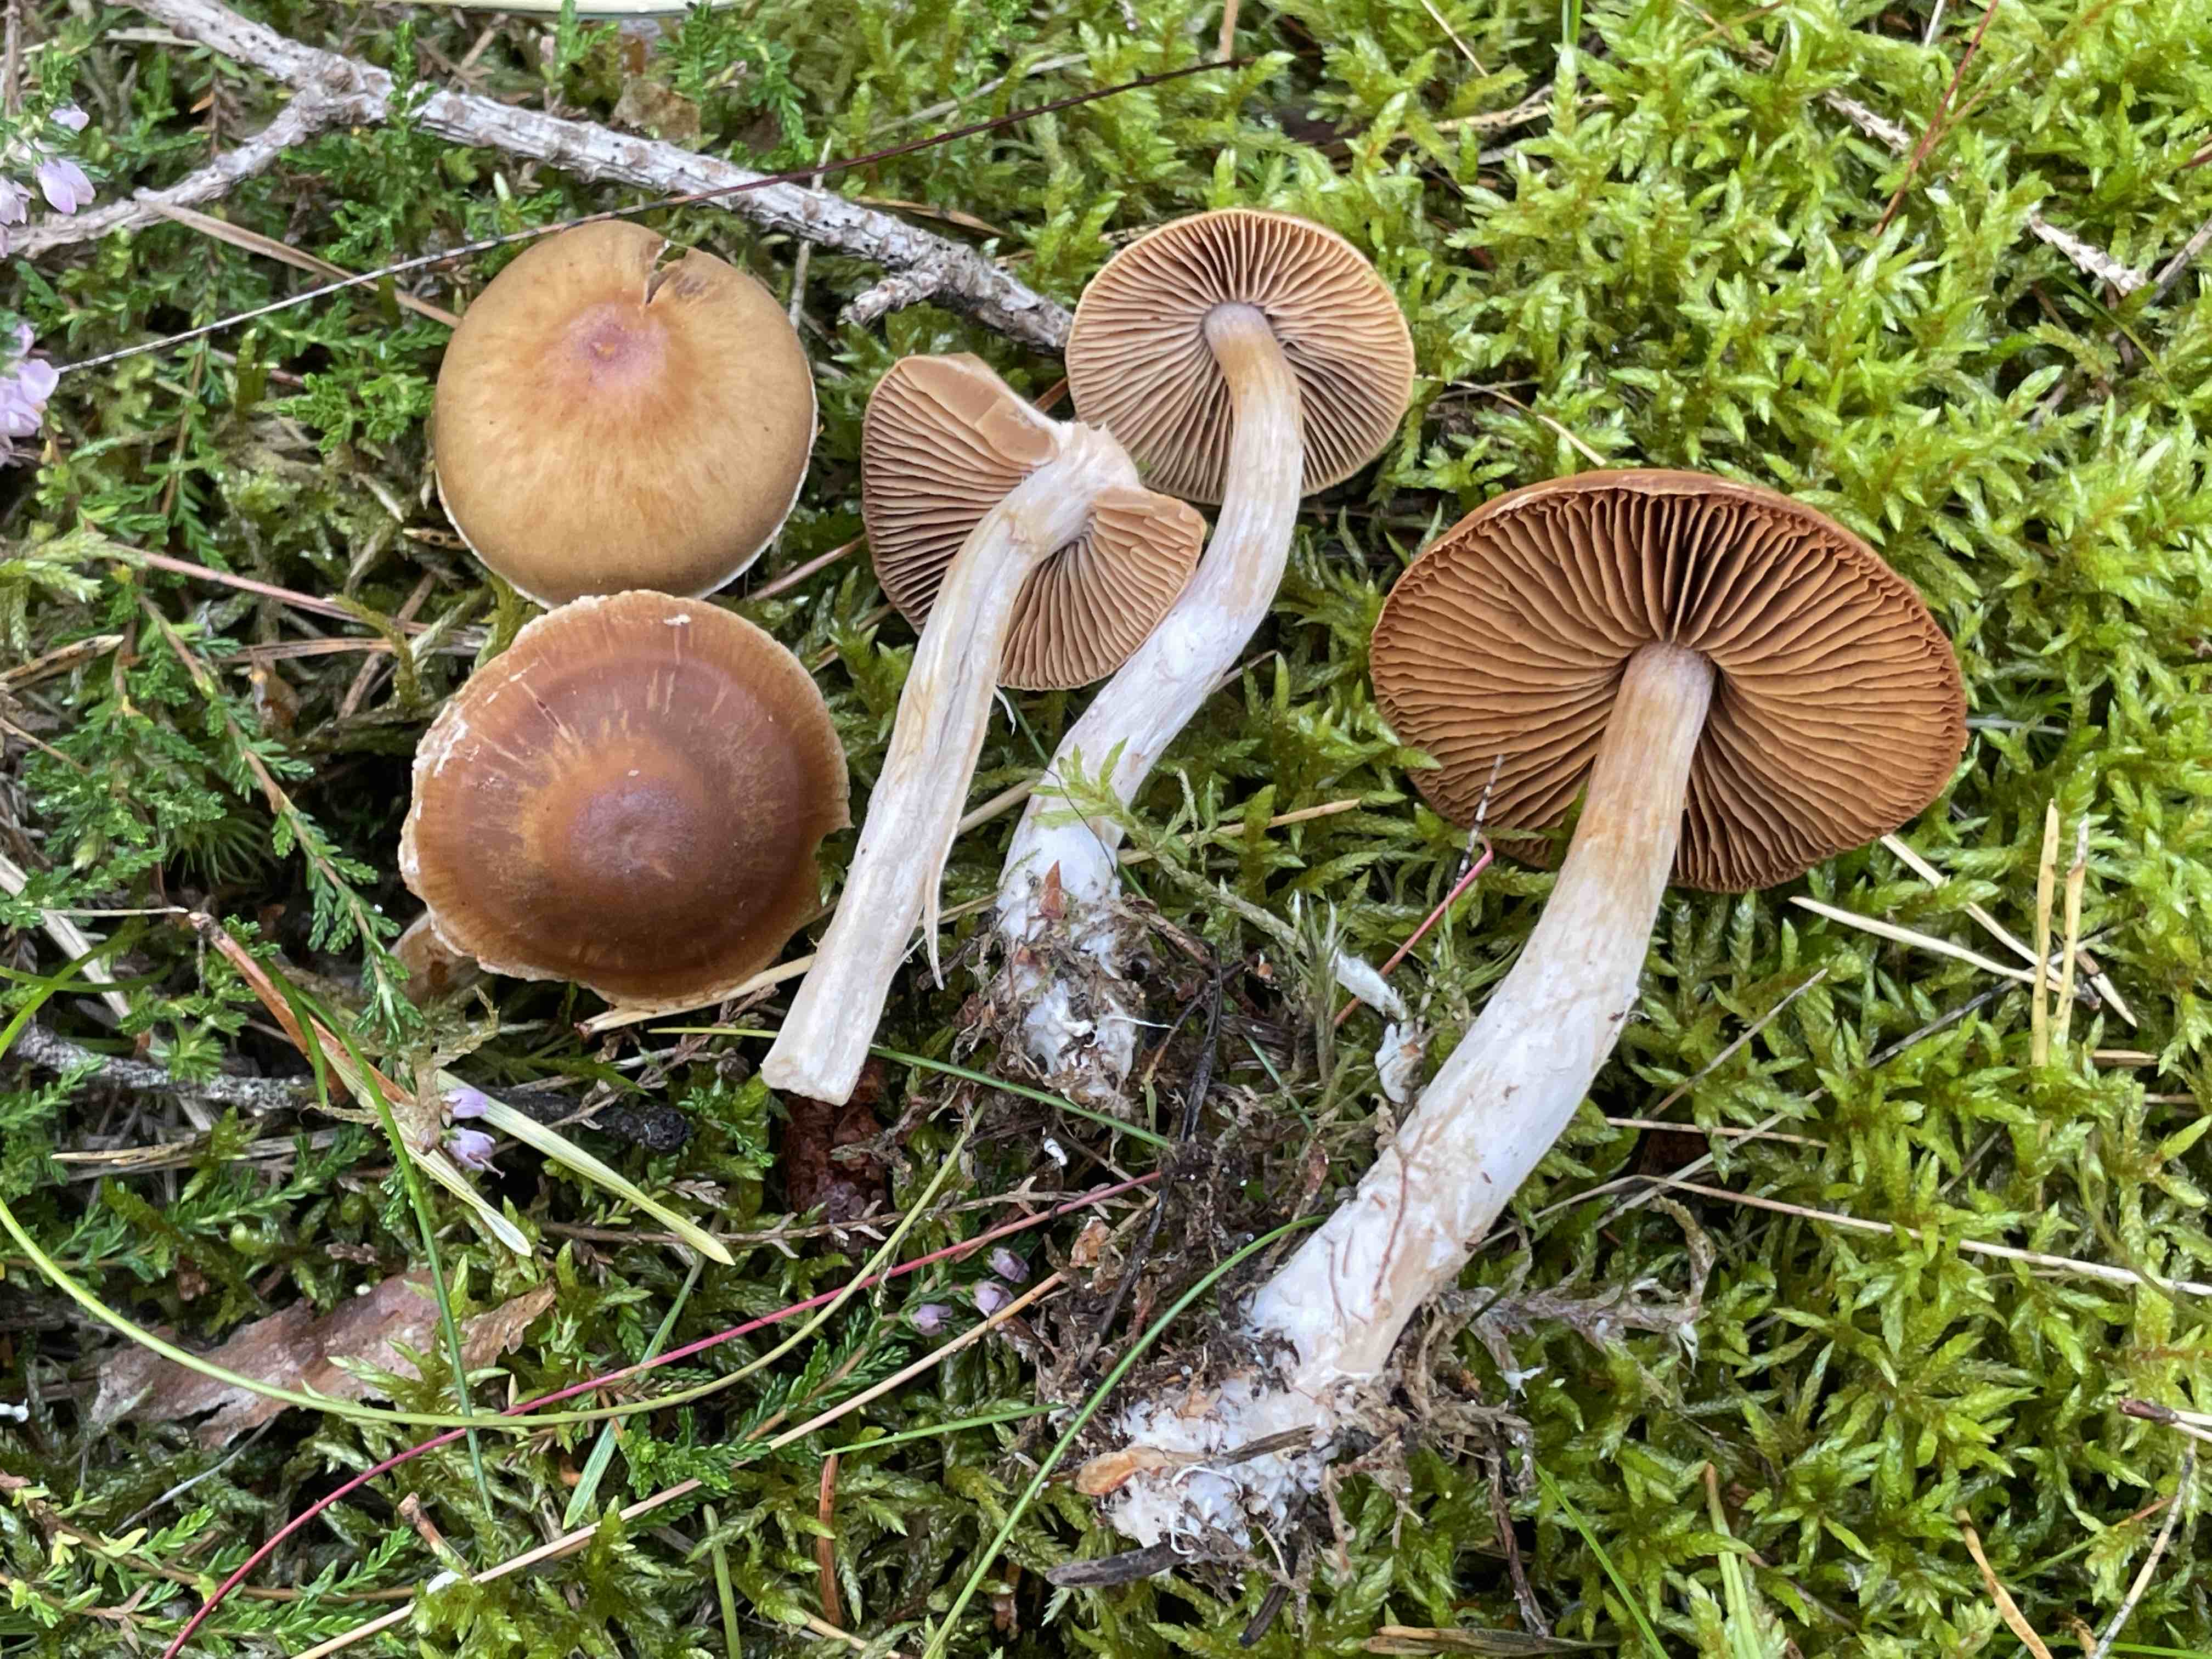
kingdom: Fungi
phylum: Basidiomycota
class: Agaricomycetes
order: Agaricales
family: Cortinariaceae
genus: Cortinarius
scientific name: Cortinarius
